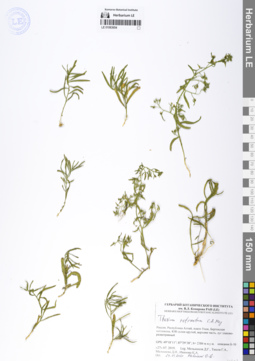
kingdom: Plantae
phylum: Tracheophyta
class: Magnoliopsida
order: Santalales
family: Thesiaceae
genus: Thesium
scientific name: Thesium refractum
